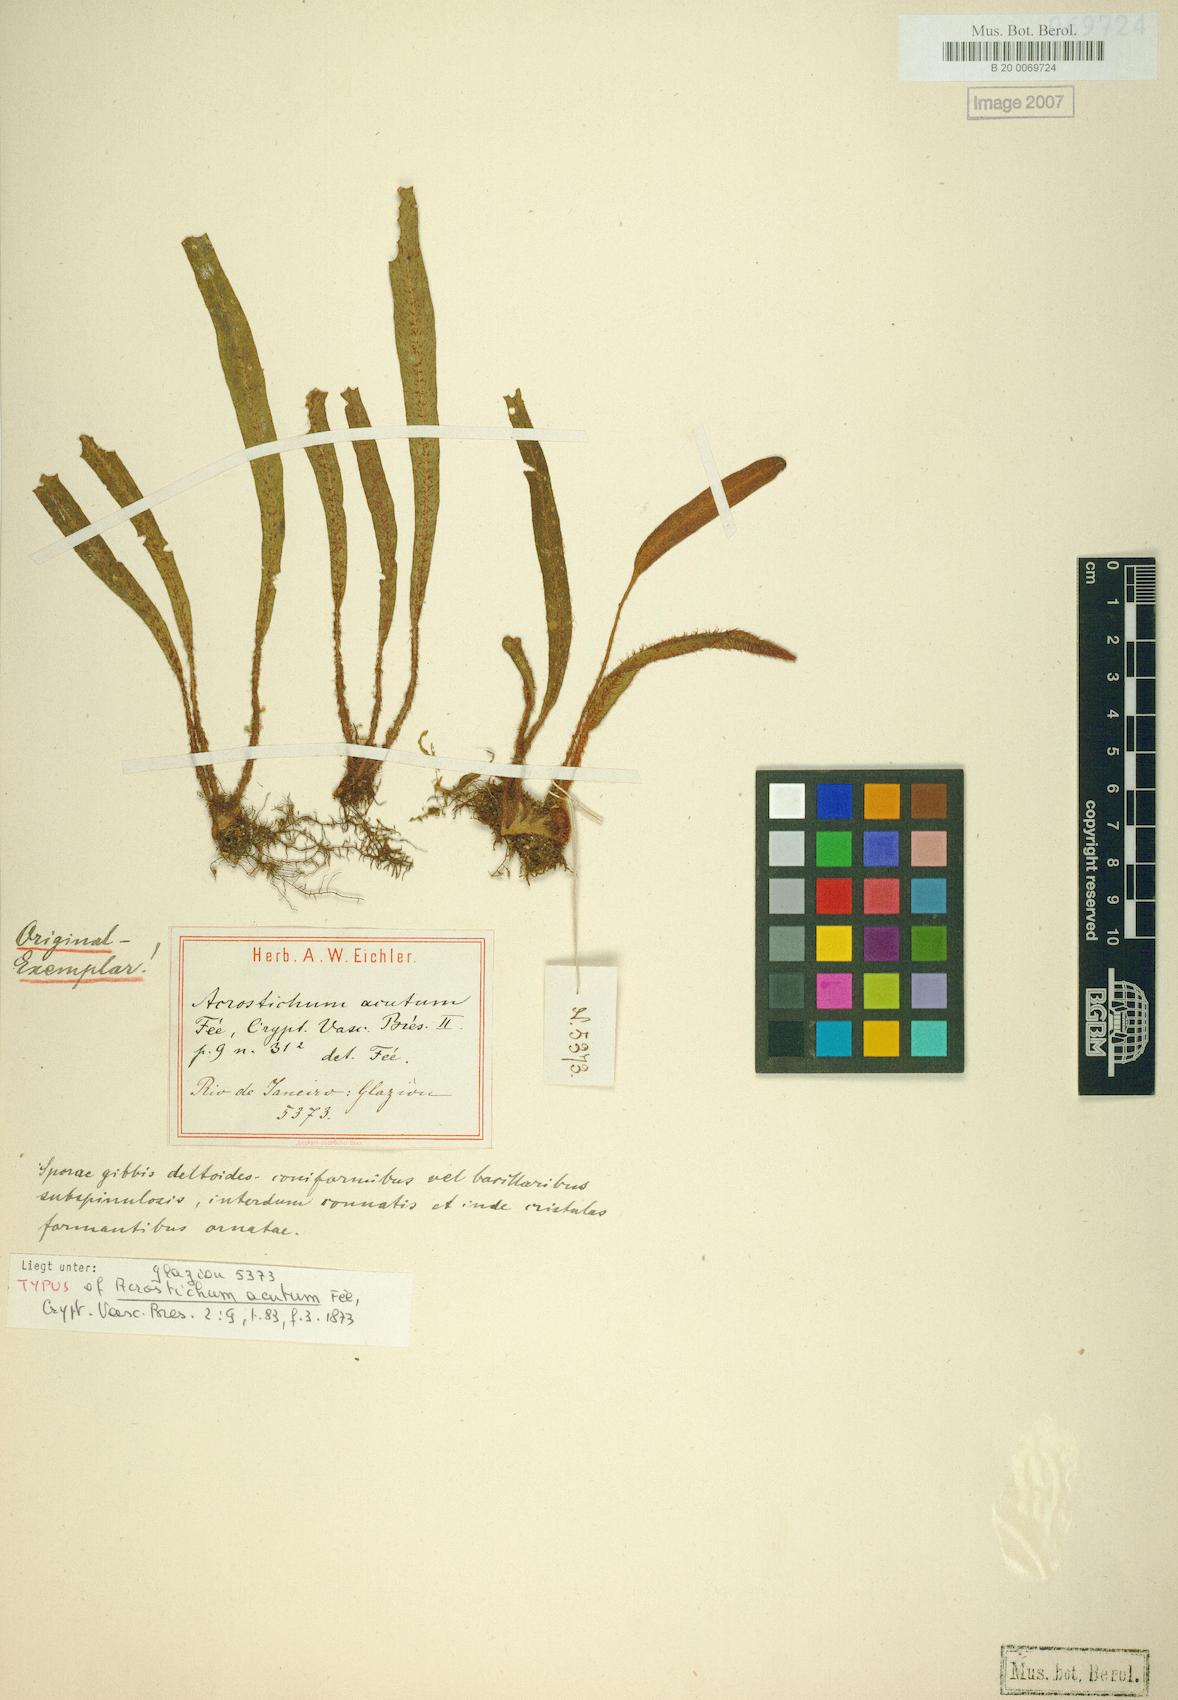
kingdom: Plantae
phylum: Tracheophyta
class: Polypodiopsida
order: Polypodiales
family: Dryopteridaceae
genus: Elaphoglossum
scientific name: Elaphoglossum setosum
